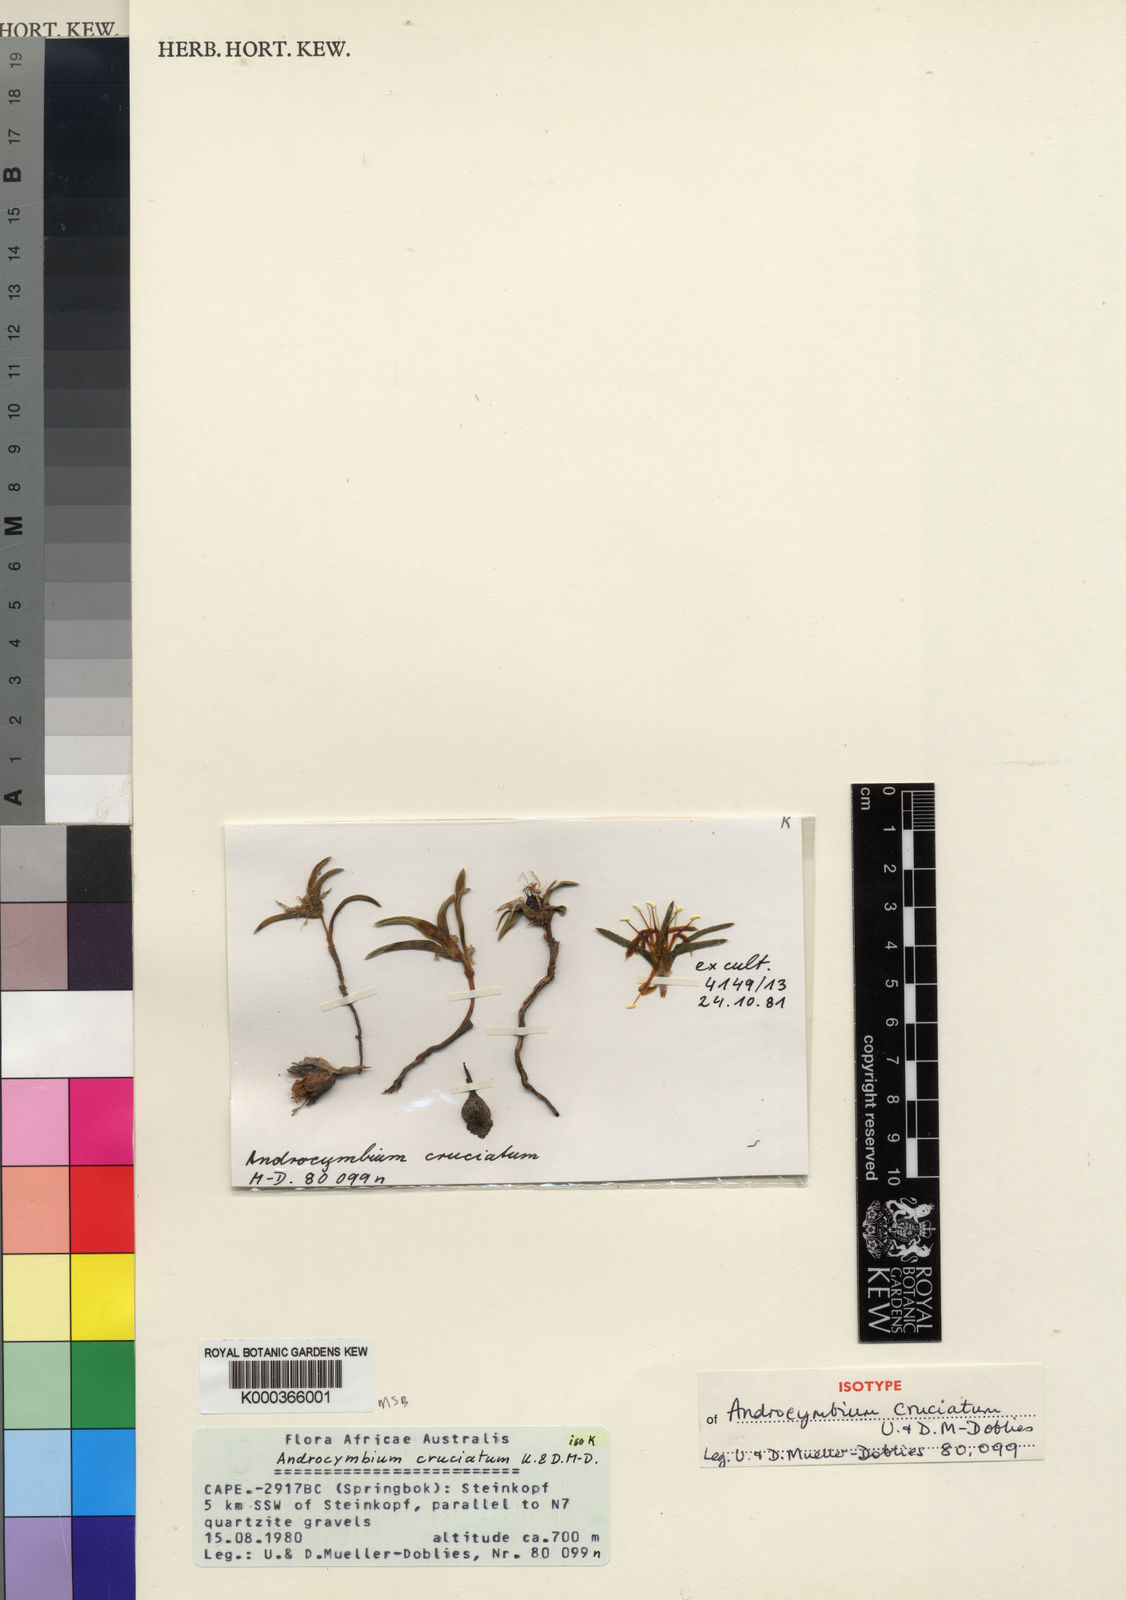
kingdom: Plantae
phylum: Tracheophyta
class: Liliopsida
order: Liliales
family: Colchicaceae
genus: Colchicum
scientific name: Colchicum
